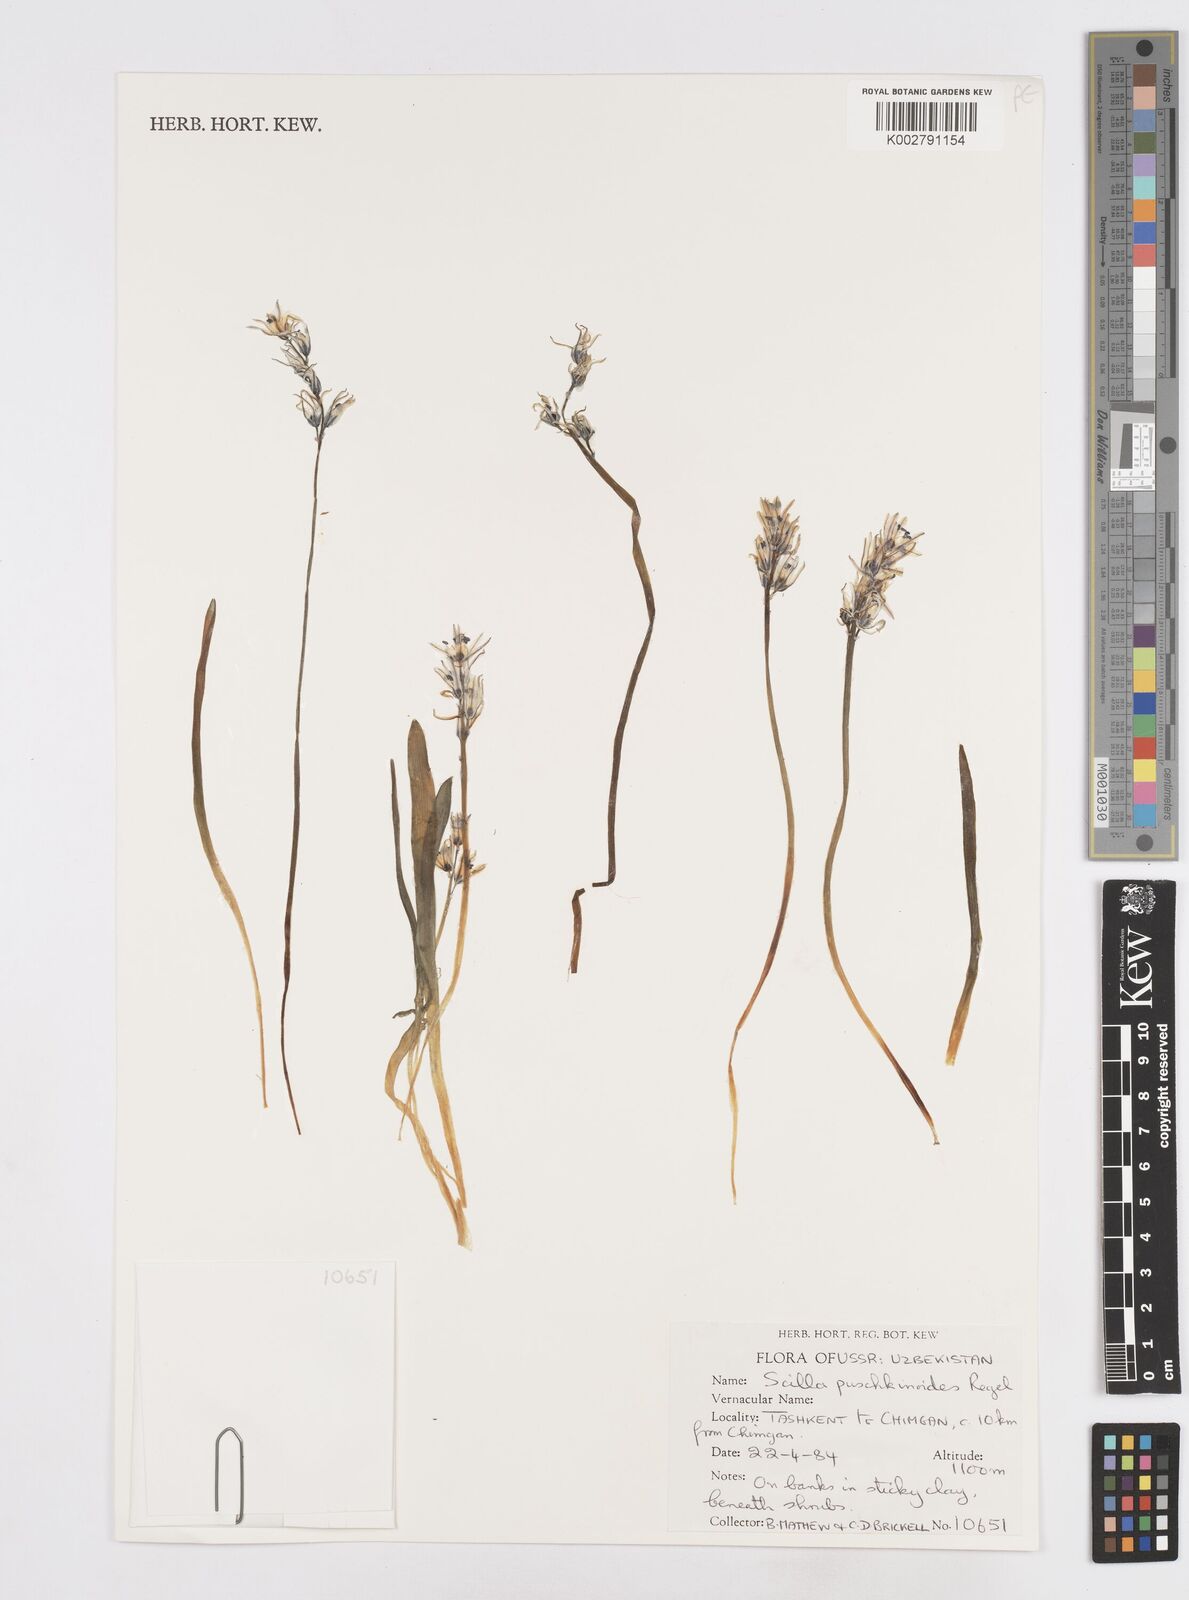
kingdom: Plantae
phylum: Tracheophyta
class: Liliopsida
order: Asparagales
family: Asparagaceae
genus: Fessia
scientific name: Fessia puschkinioides
